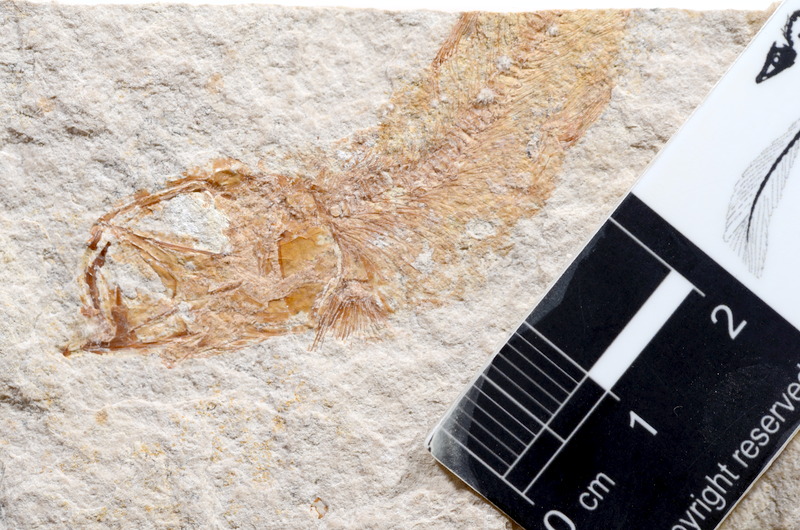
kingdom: Animalia
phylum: Chordata
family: Ascalaboidae
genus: Tharsis
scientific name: Tharsis dubius
